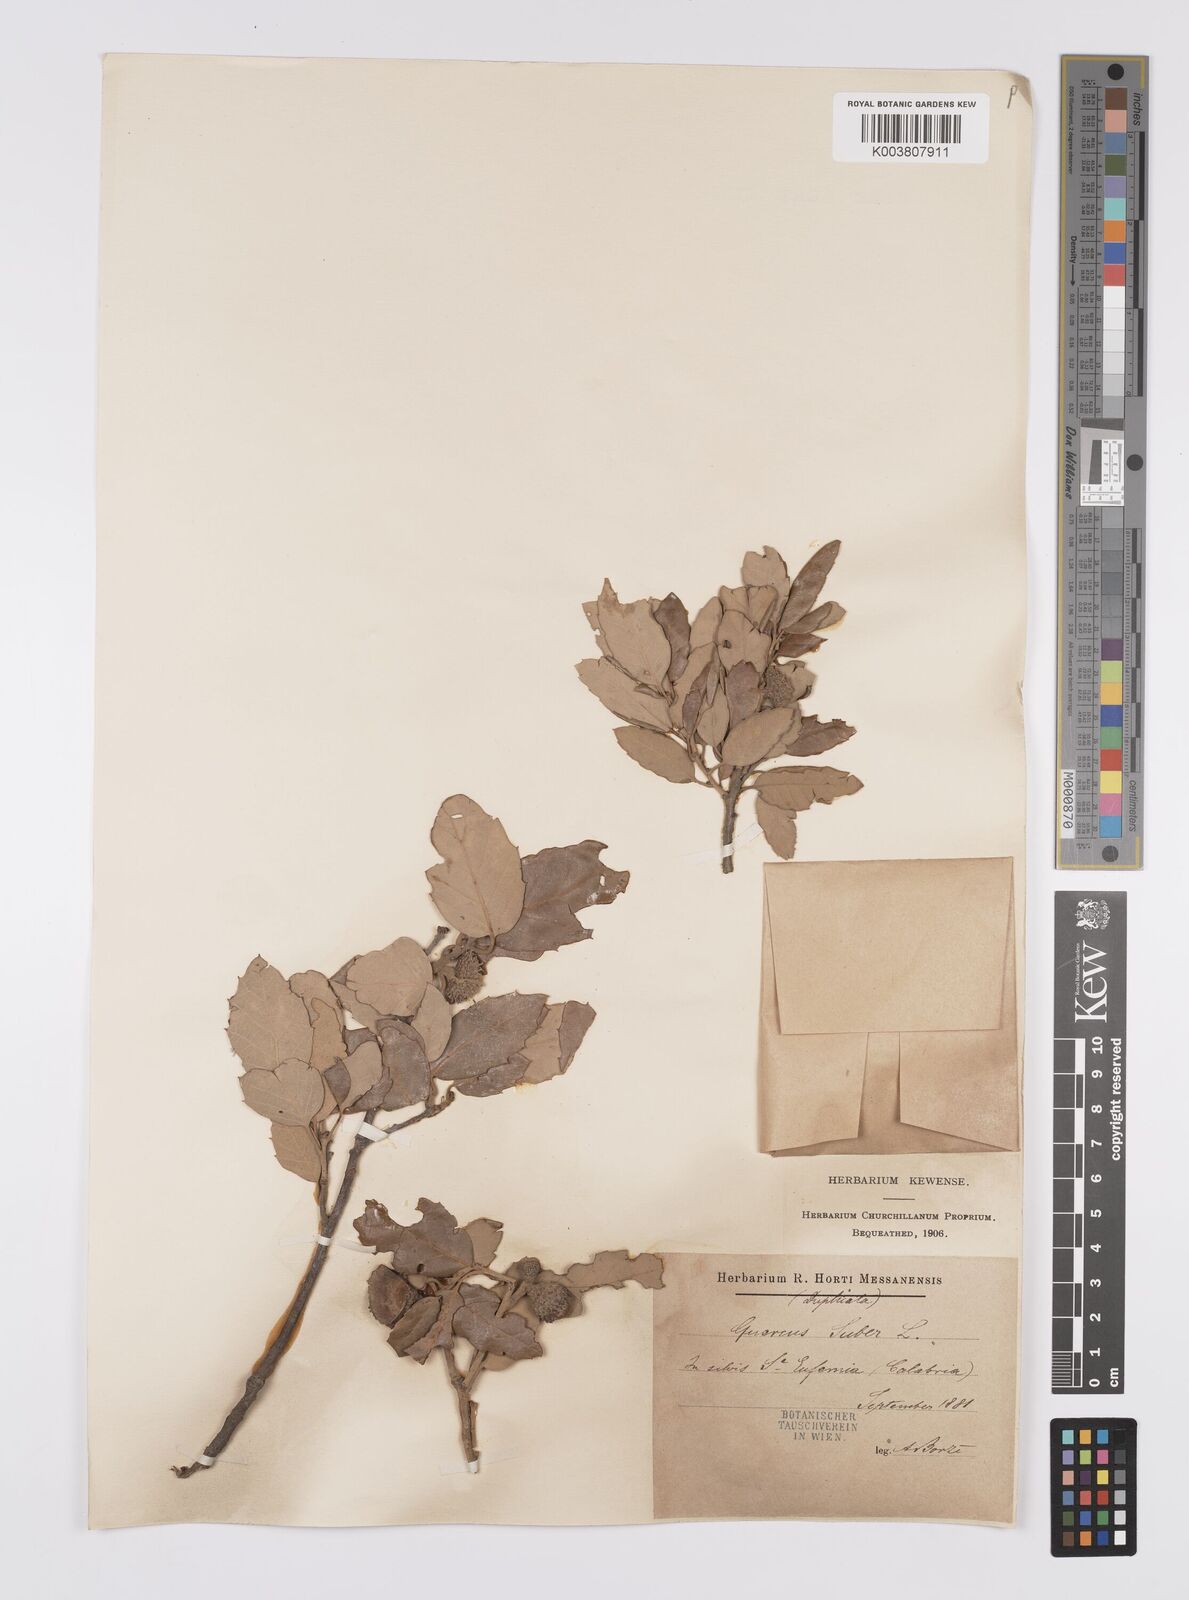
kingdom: Plantae
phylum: Tracheophyta
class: Magnoliopsida
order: Fagales
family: Fagaceae
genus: Quercus
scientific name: Quercus suber
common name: Cork oak
